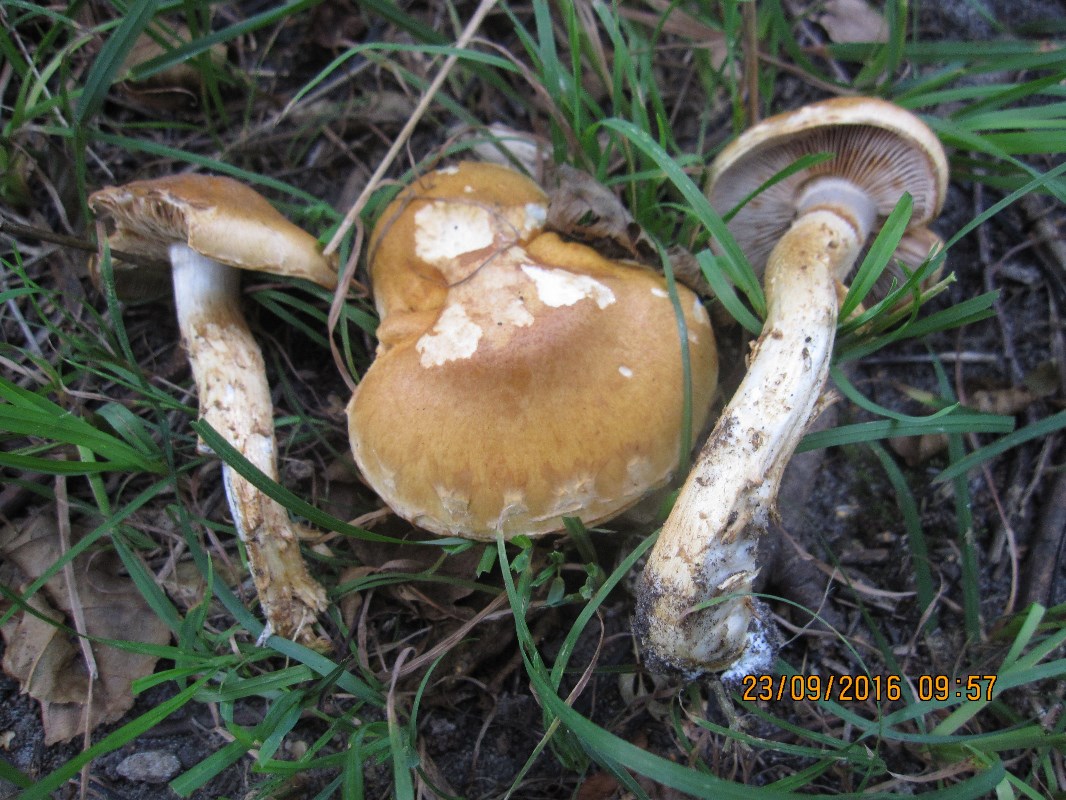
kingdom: Fungi
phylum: Basidiomycota
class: Agaricomycetes
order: Agaricales
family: Cortinariaceae
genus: Phlegmacium
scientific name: Phlegmacium triumphans
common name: gulbæltet slørhat
